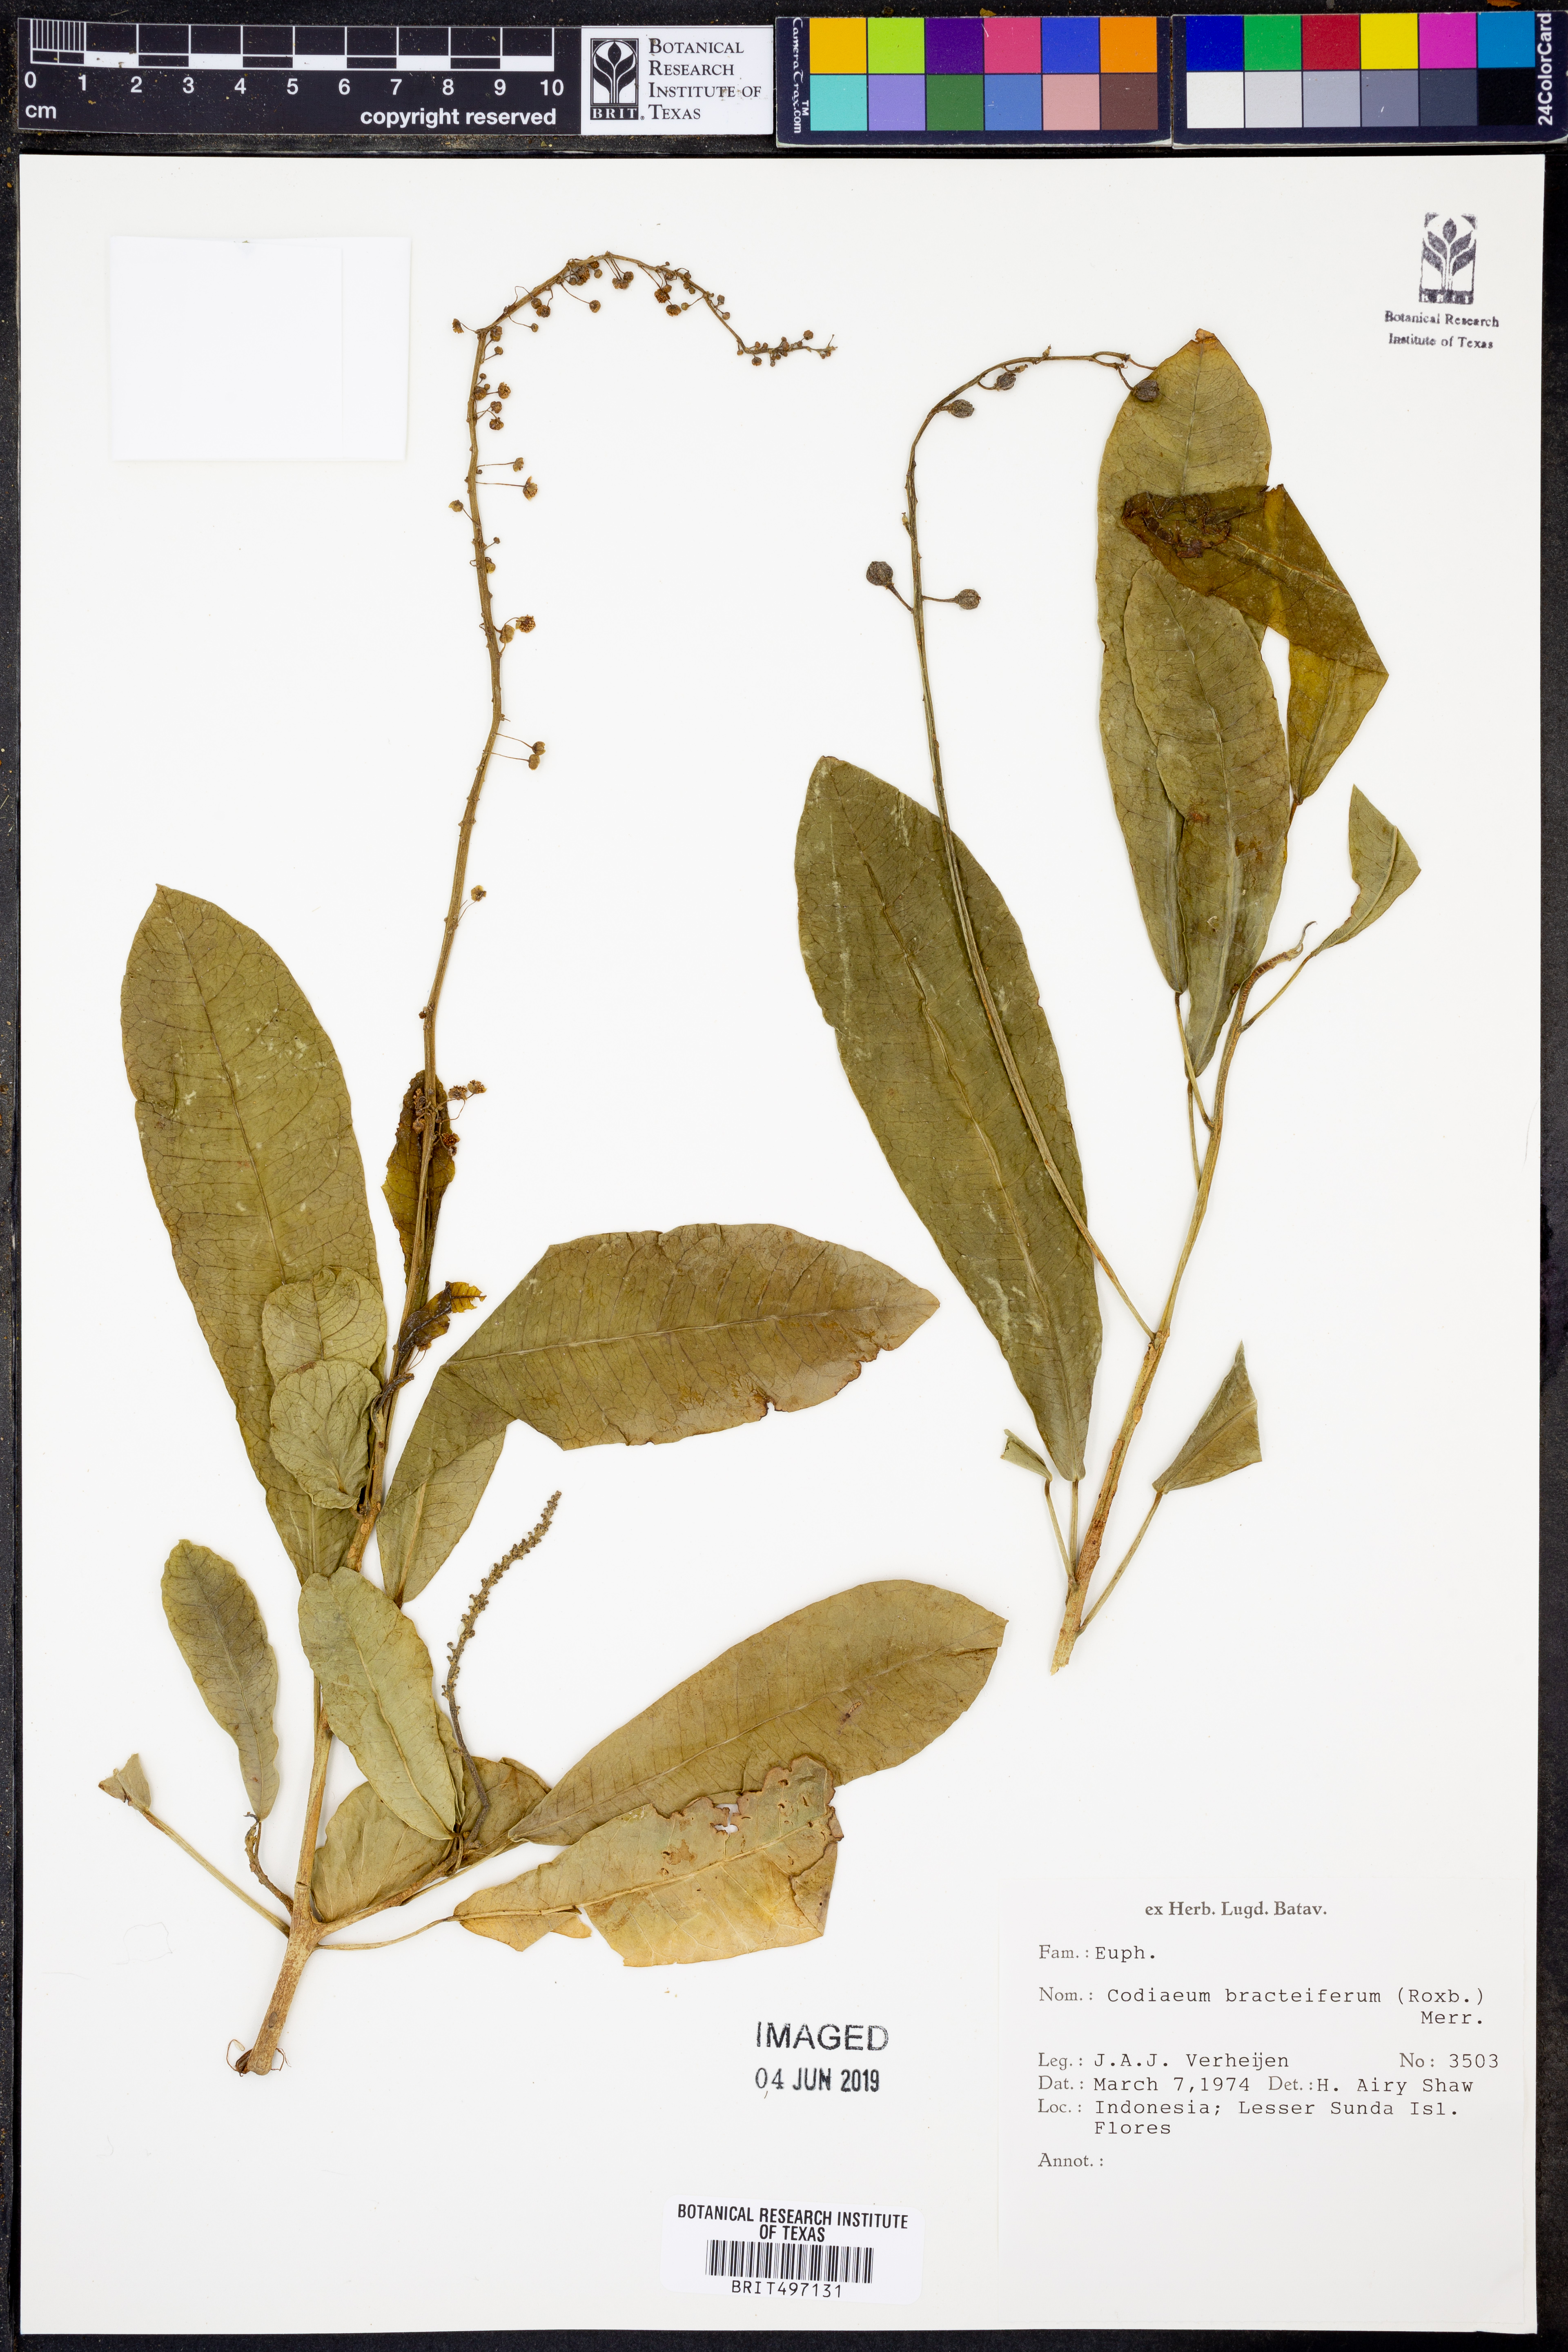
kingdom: Plantae
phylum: Tracheophyta
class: Magnoliopsida
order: Malpighiales
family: Euphorbiaceae
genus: Codiaeum
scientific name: Codiaeum bractiferum
